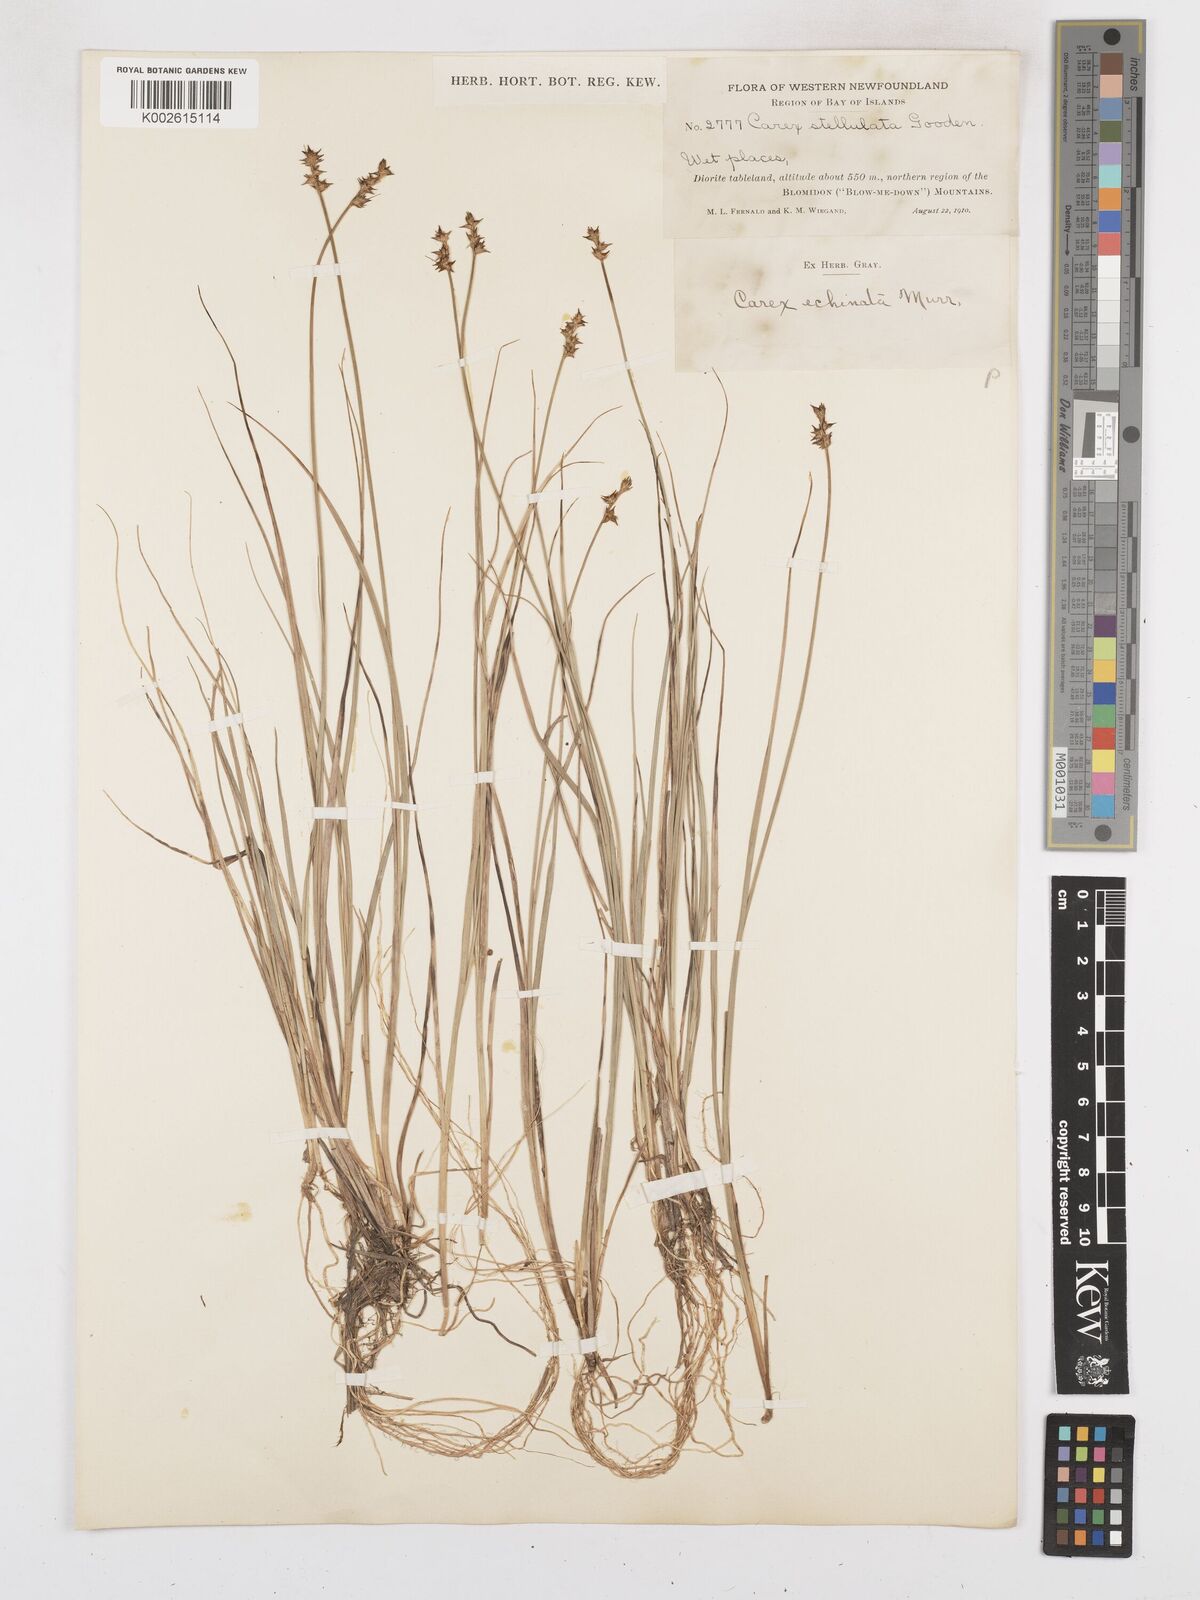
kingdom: Plantae
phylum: Tracheophyta
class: Liliopsida
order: Poales
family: Cyperaceae
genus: Carex
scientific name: Carex echinata
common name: Star sedge
